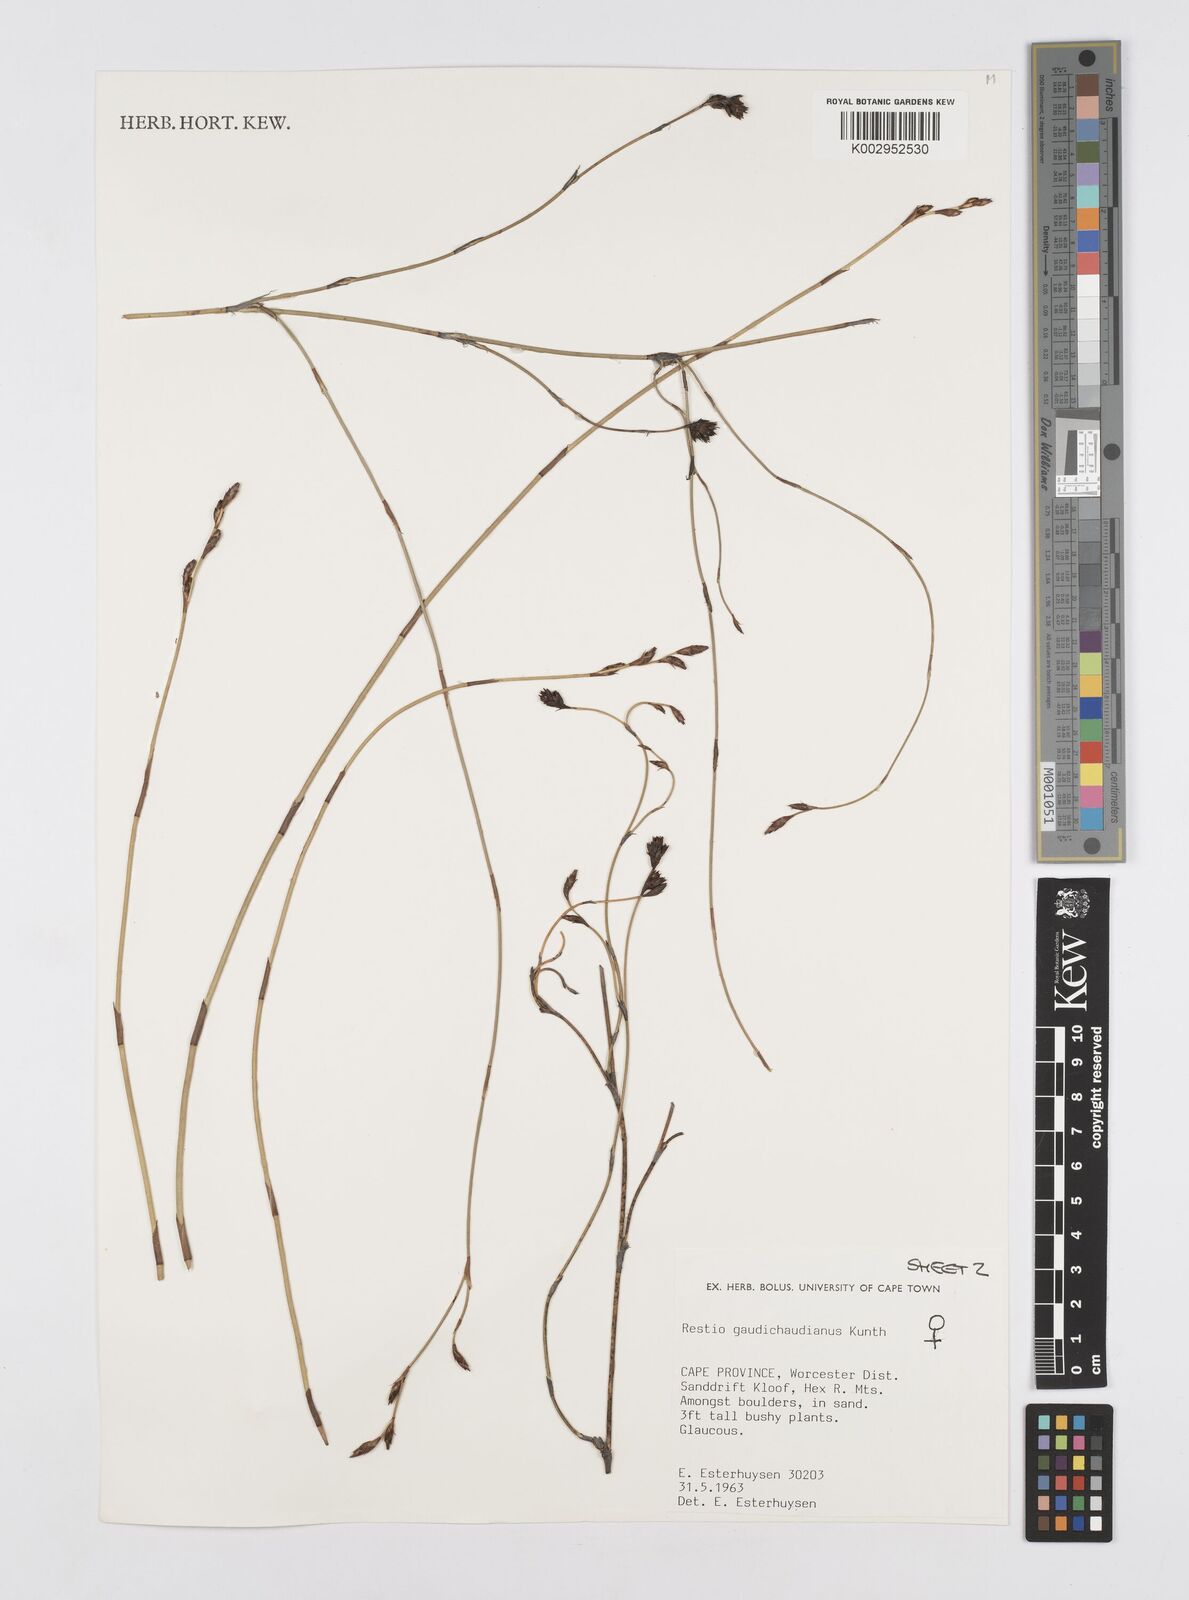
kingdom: Plantae
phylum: Tracheophyta
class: Liliopsida
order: Poales
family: Restionaceae
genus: Restio
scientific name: Restio gaudichaudianus
